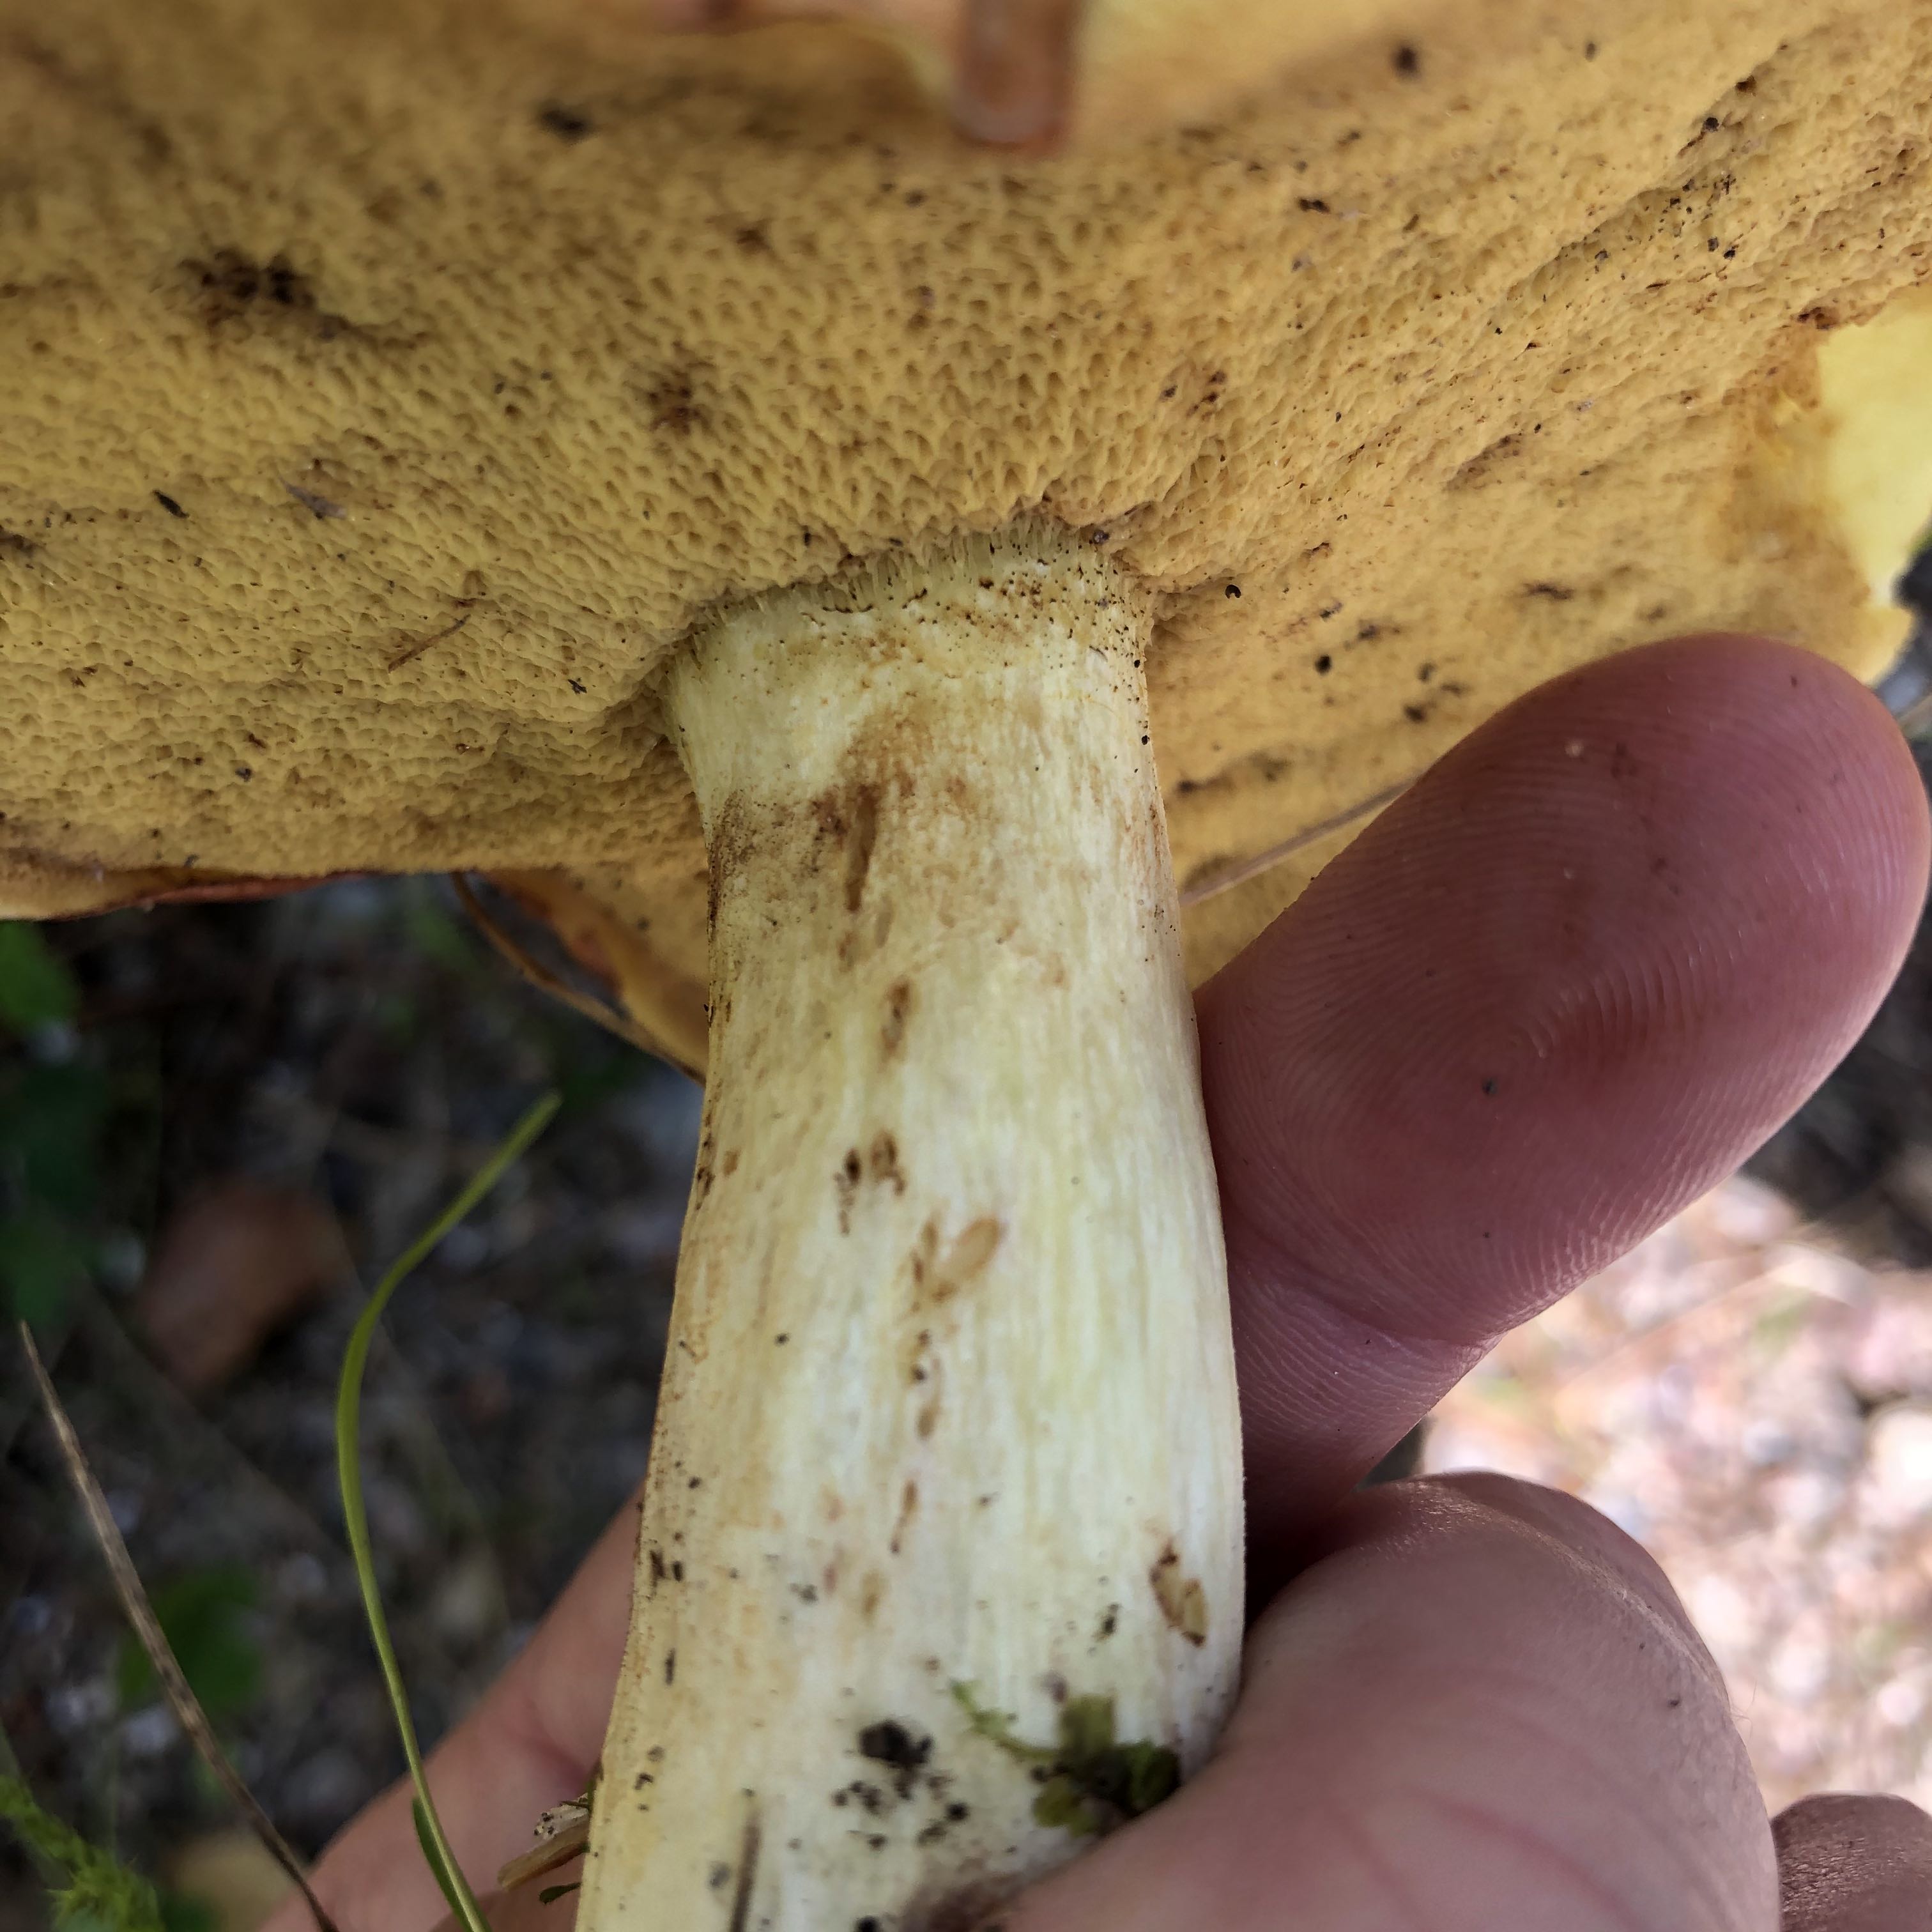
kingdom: Fungi
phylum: Basidiomycota
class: Agaricomycetes
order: Boletales
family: Suillaceae
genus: Suillus
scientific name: Suillus granulatus
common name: kornet slimrørhat
